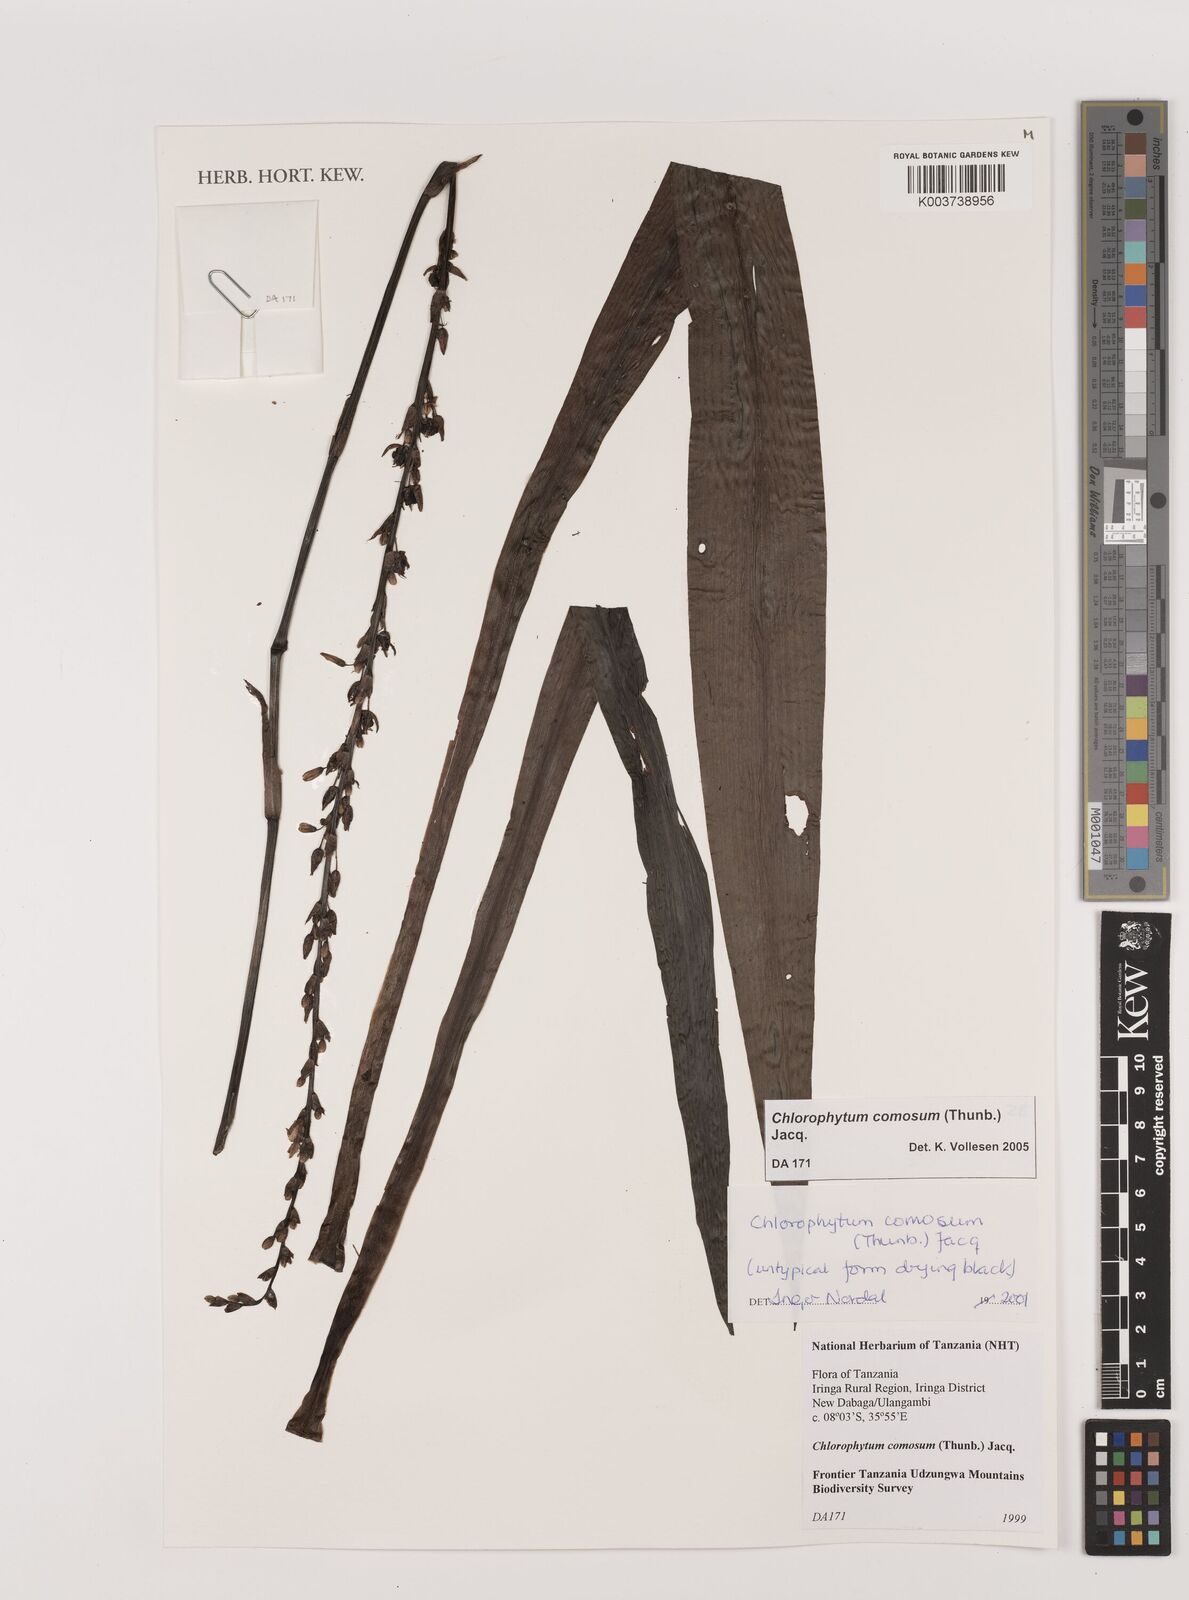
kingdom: Plantae
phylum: Tracheophyta
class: Liliopsida
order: Asparagales
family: Asparagaceae
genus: Chlorophytum
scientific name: Chlorophytum comosum
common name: Spider plant
